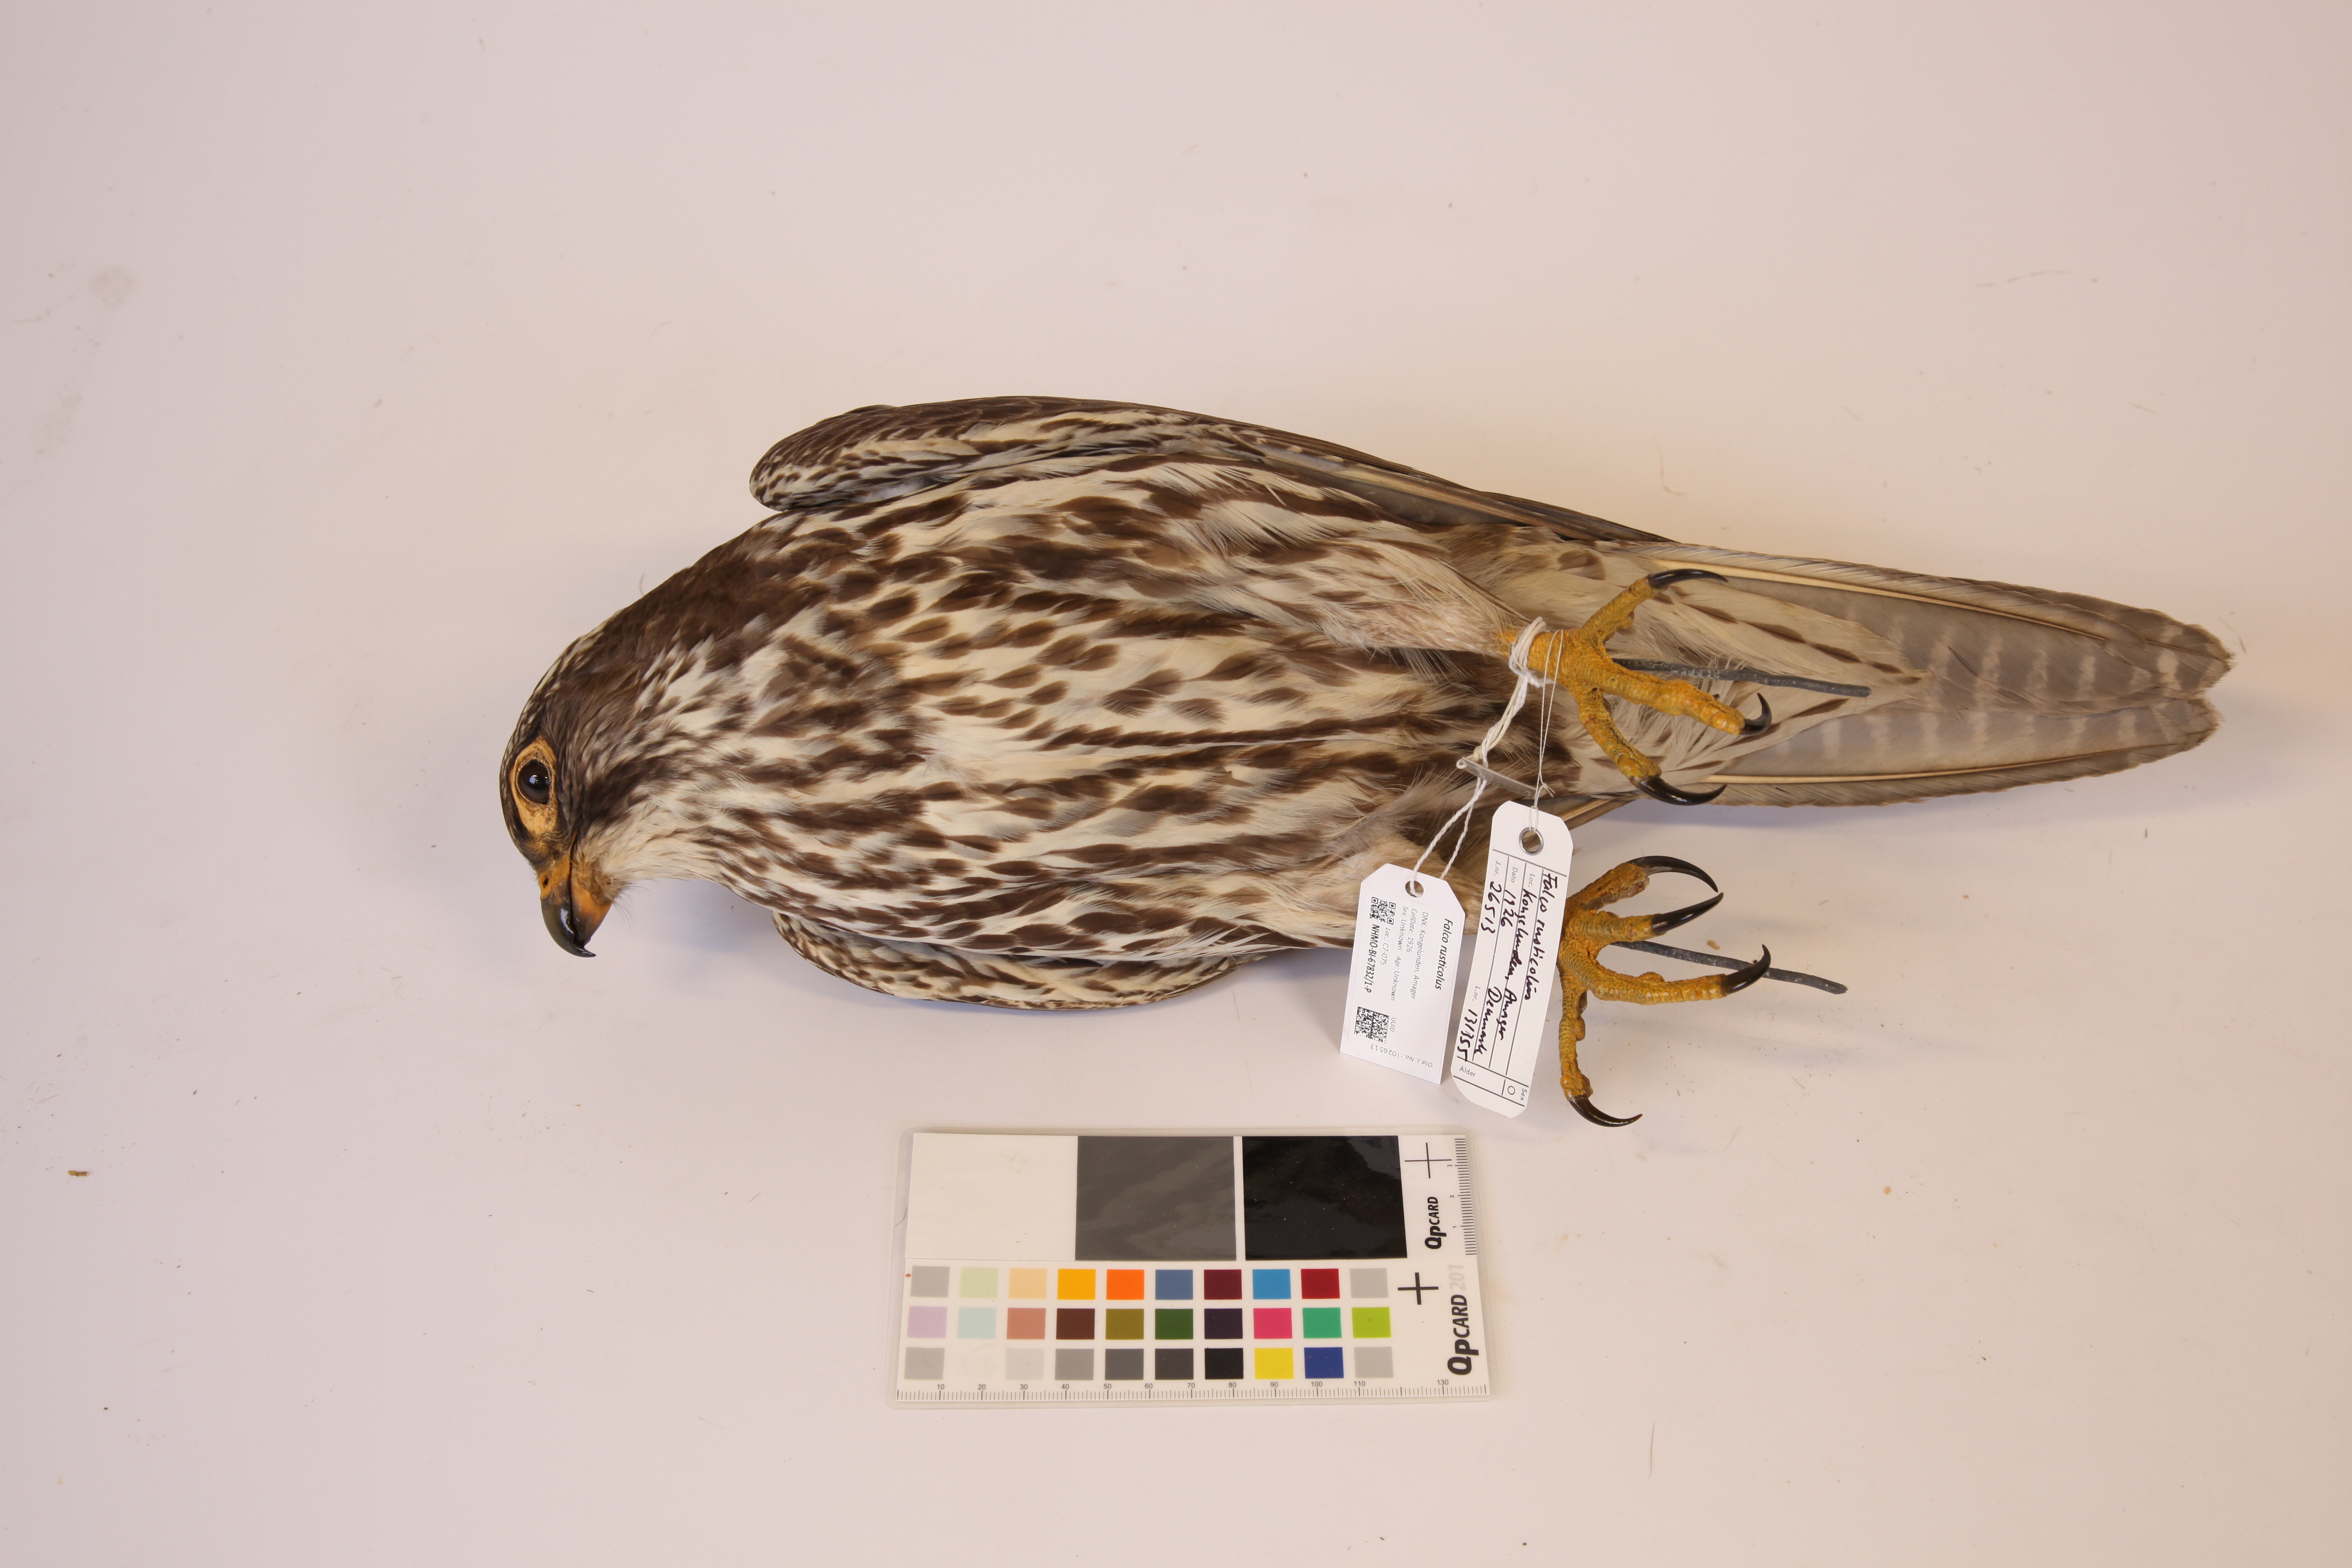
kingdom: Animalia
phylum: Chordata
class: Aves
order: Falconiformes
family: Falconidae
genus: Falco
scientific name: Falco rusticolus
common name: Gyrfalcon
